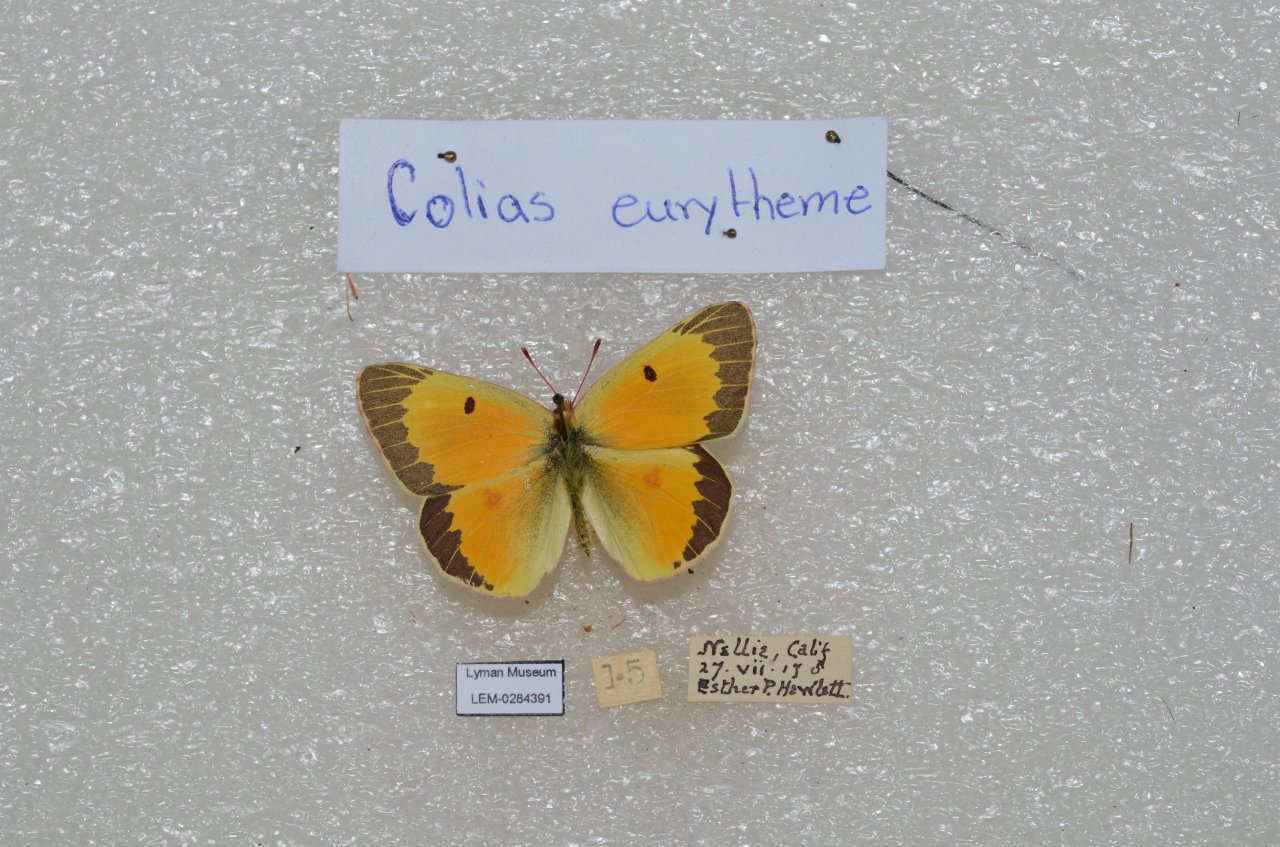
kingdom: Animalia
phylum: Arthropoda
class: Insecta
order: Lepidoptera
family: Pieridae
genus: Colias
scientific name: Colias eurytheme
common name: Orange Sulphur
